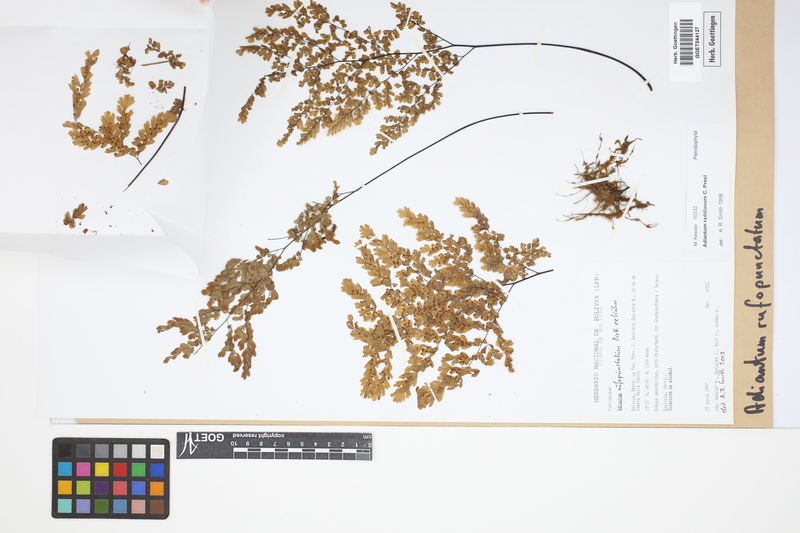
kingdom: Plantae
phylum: Tracheophyta
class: Polypodiopsida
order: Polypodiales
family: Pteridaceae
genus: Adiantum
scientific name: Adiantum rufopunctatum
